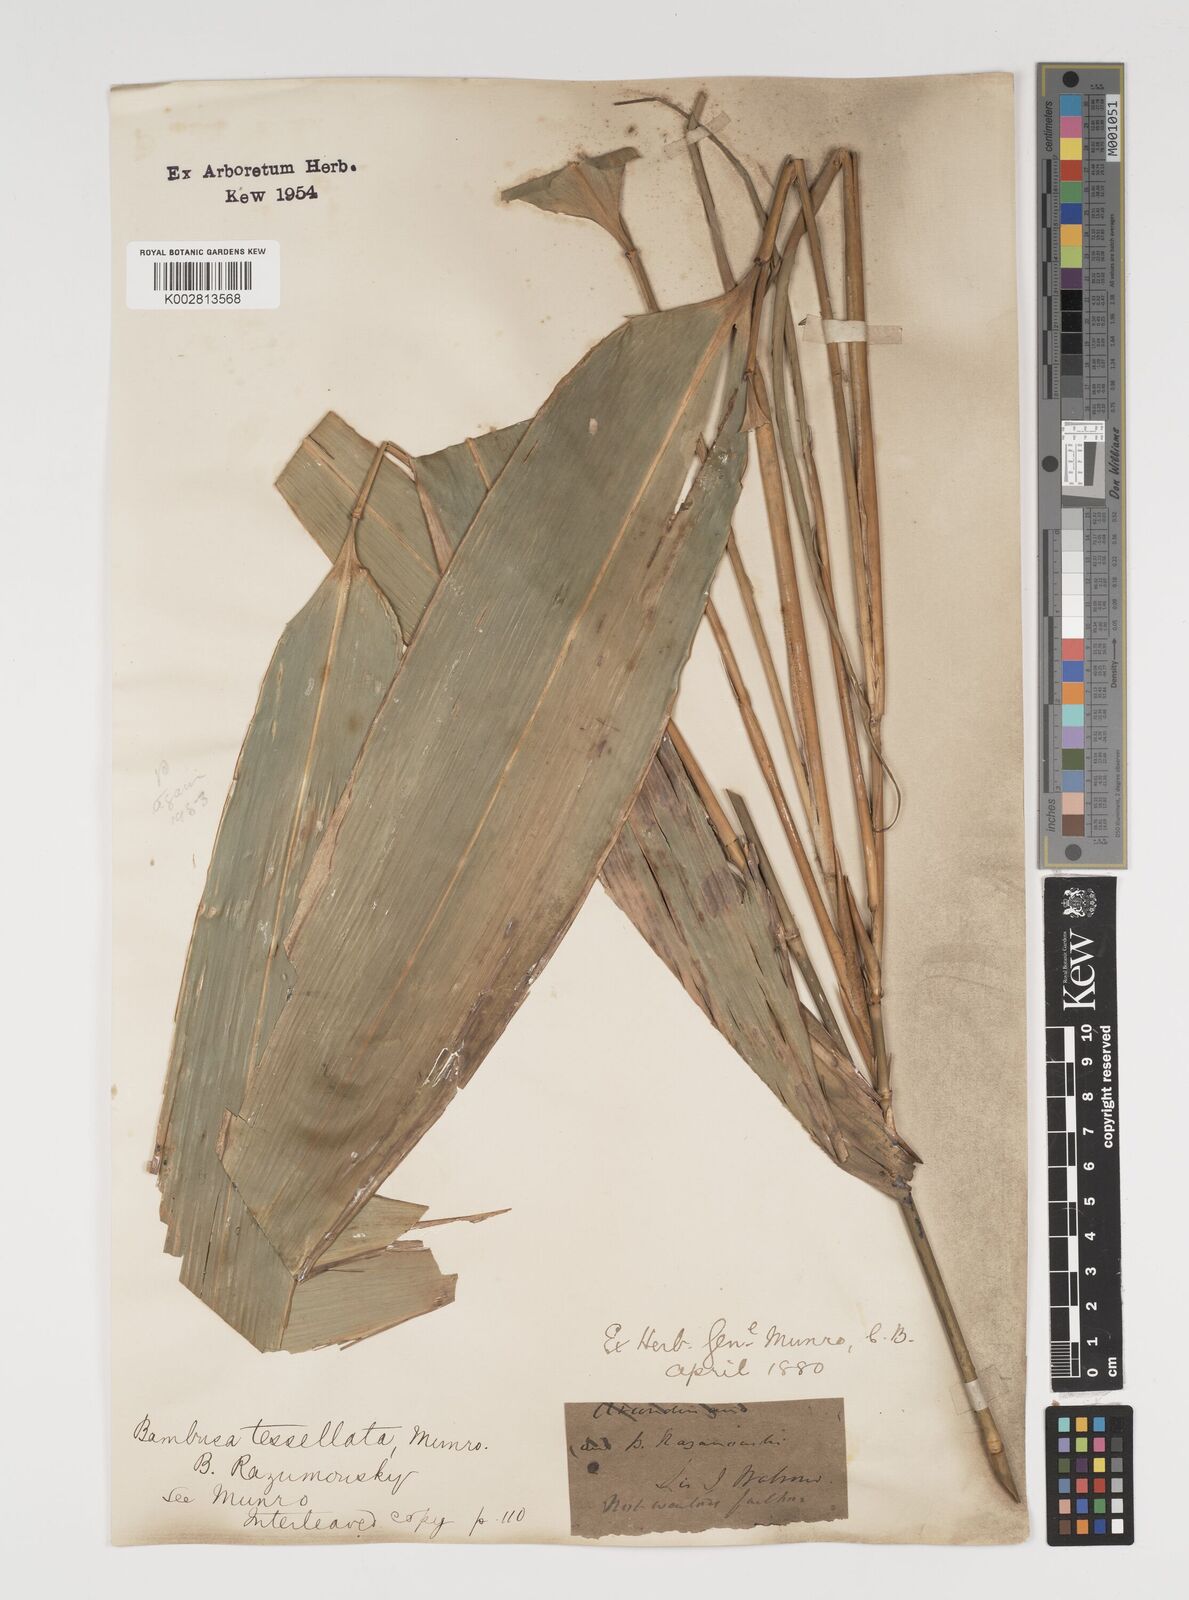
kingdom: Plantae
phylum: Tracheophyta
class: Liliopsida
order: Poales
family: Poaceae
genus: Indocalamus
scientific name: Indocalamus tessellatus
